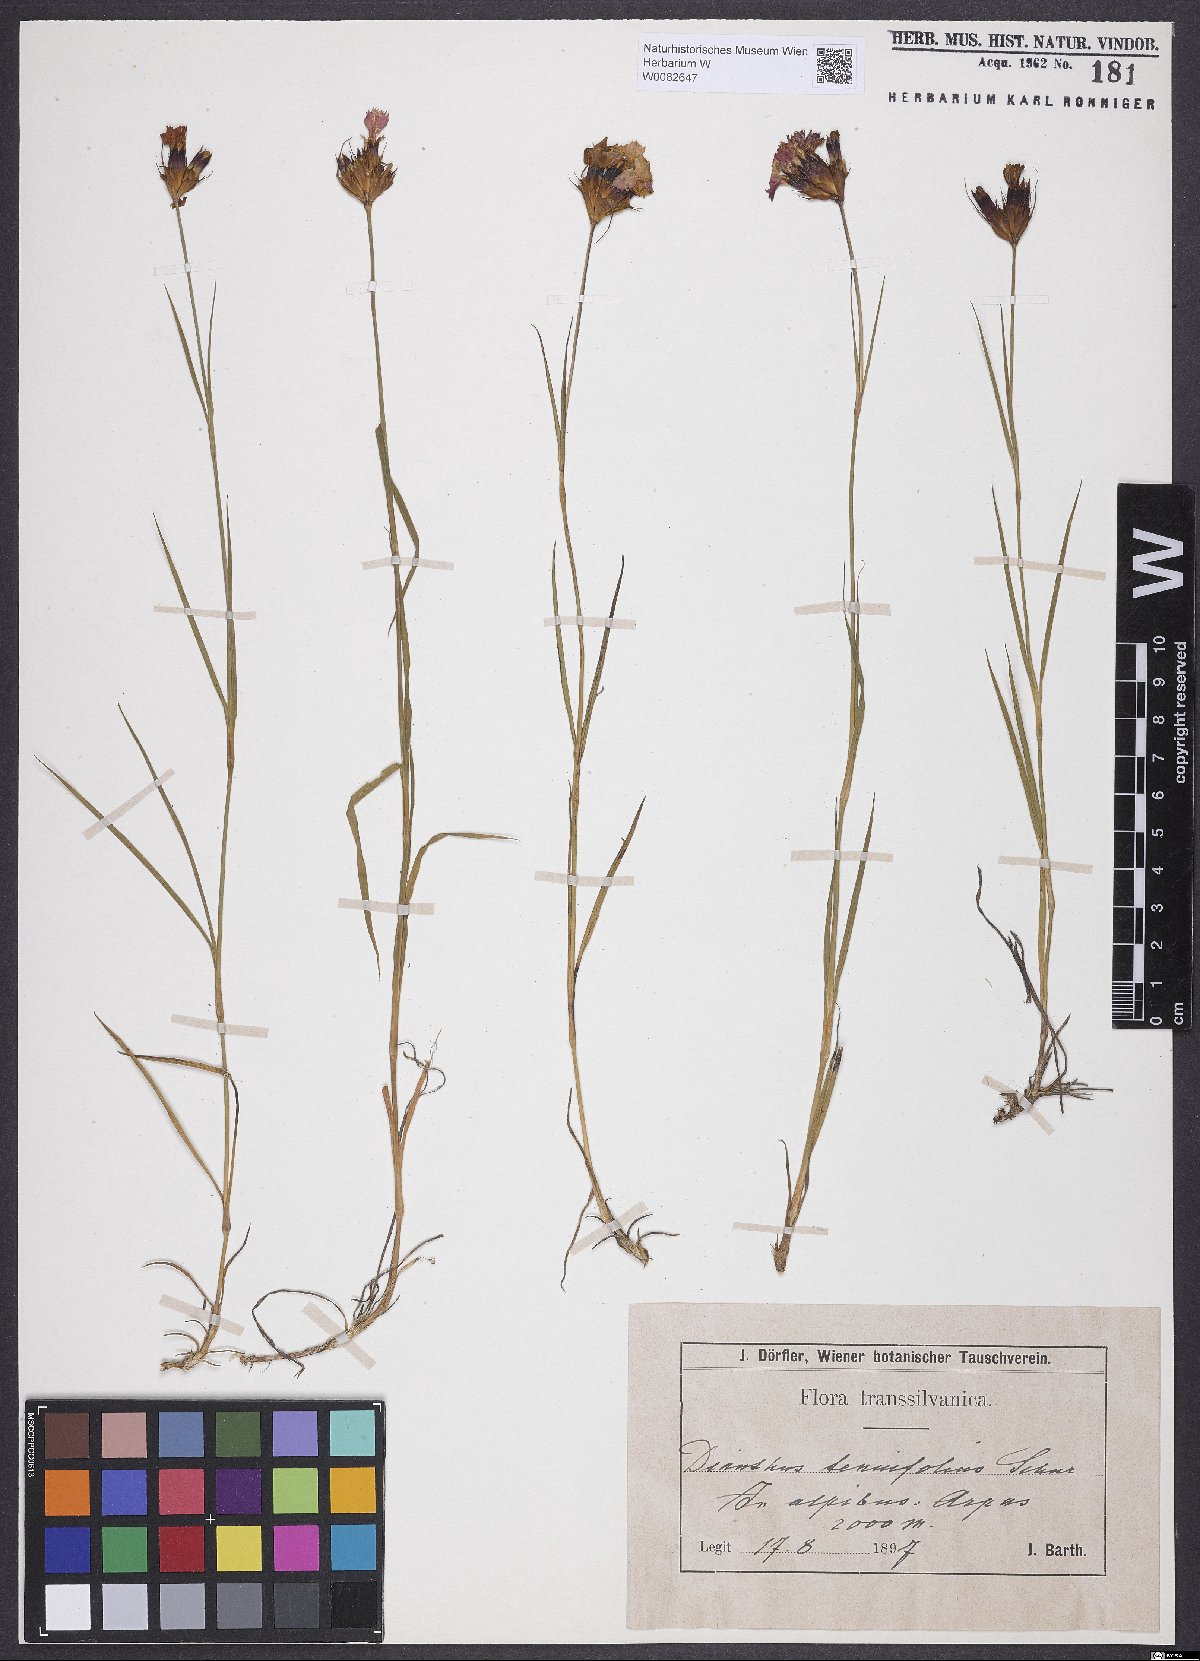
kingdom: Plantae
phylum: Tracheophyta
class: Magnoliopsida
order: Caryophyllales
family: Caryophyllaceae
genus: Dianthus
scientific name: Dianthus carthusianorum
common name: Carthusian pink
